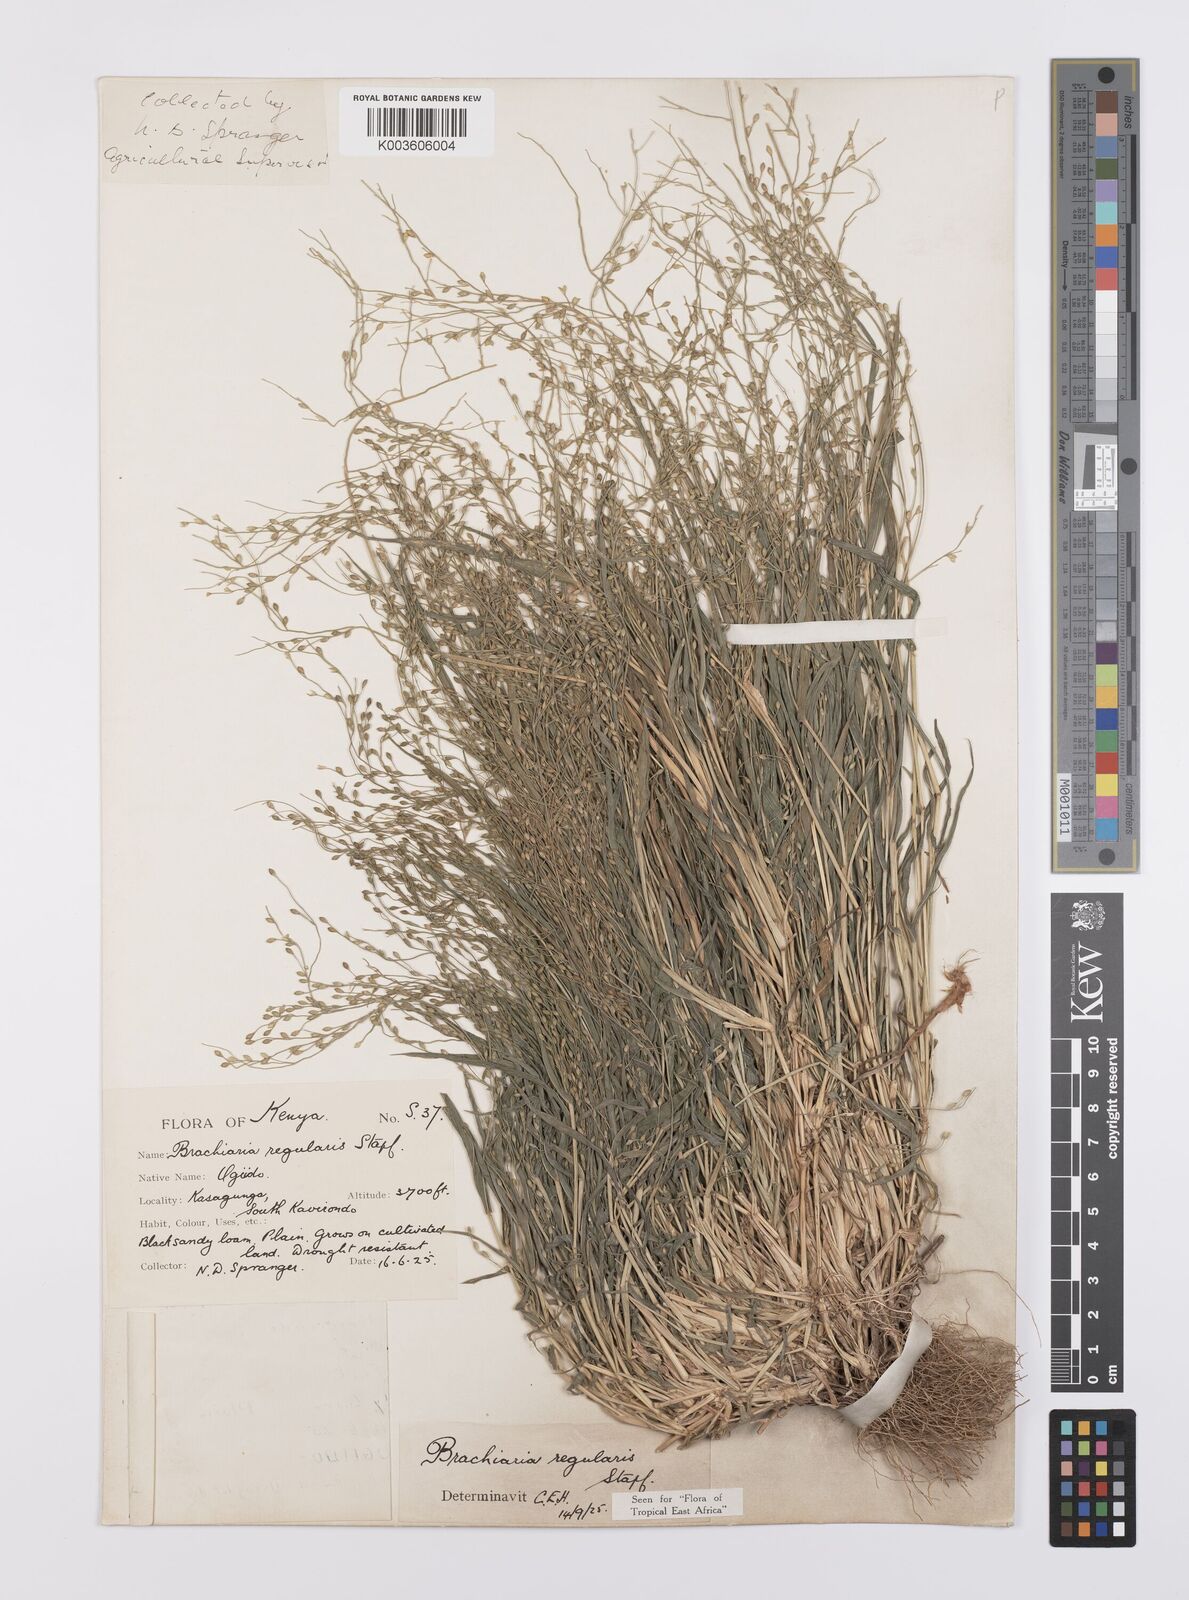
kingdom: Plantae
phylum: Tracheophyta
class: Liliopsida
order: Poales
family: Poaceae
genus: Urochloa
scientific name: Urochloa deflexa
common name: Guinea millet
